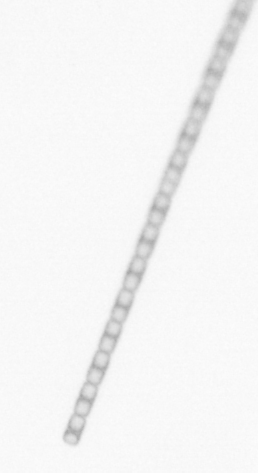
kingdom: Chromista
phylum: Ochrophyta
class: Bacillariophyceae
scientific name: Bacillariophyceae
